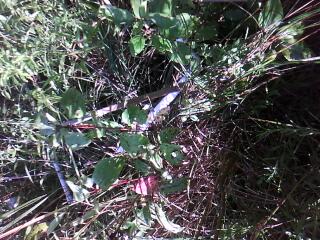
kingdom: Plantae
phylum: Tracheophyta
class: Liliopsida
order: Poales
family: Typhaceae
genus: Typha
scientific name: Typha angustifolia
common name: Lesser bulrush
